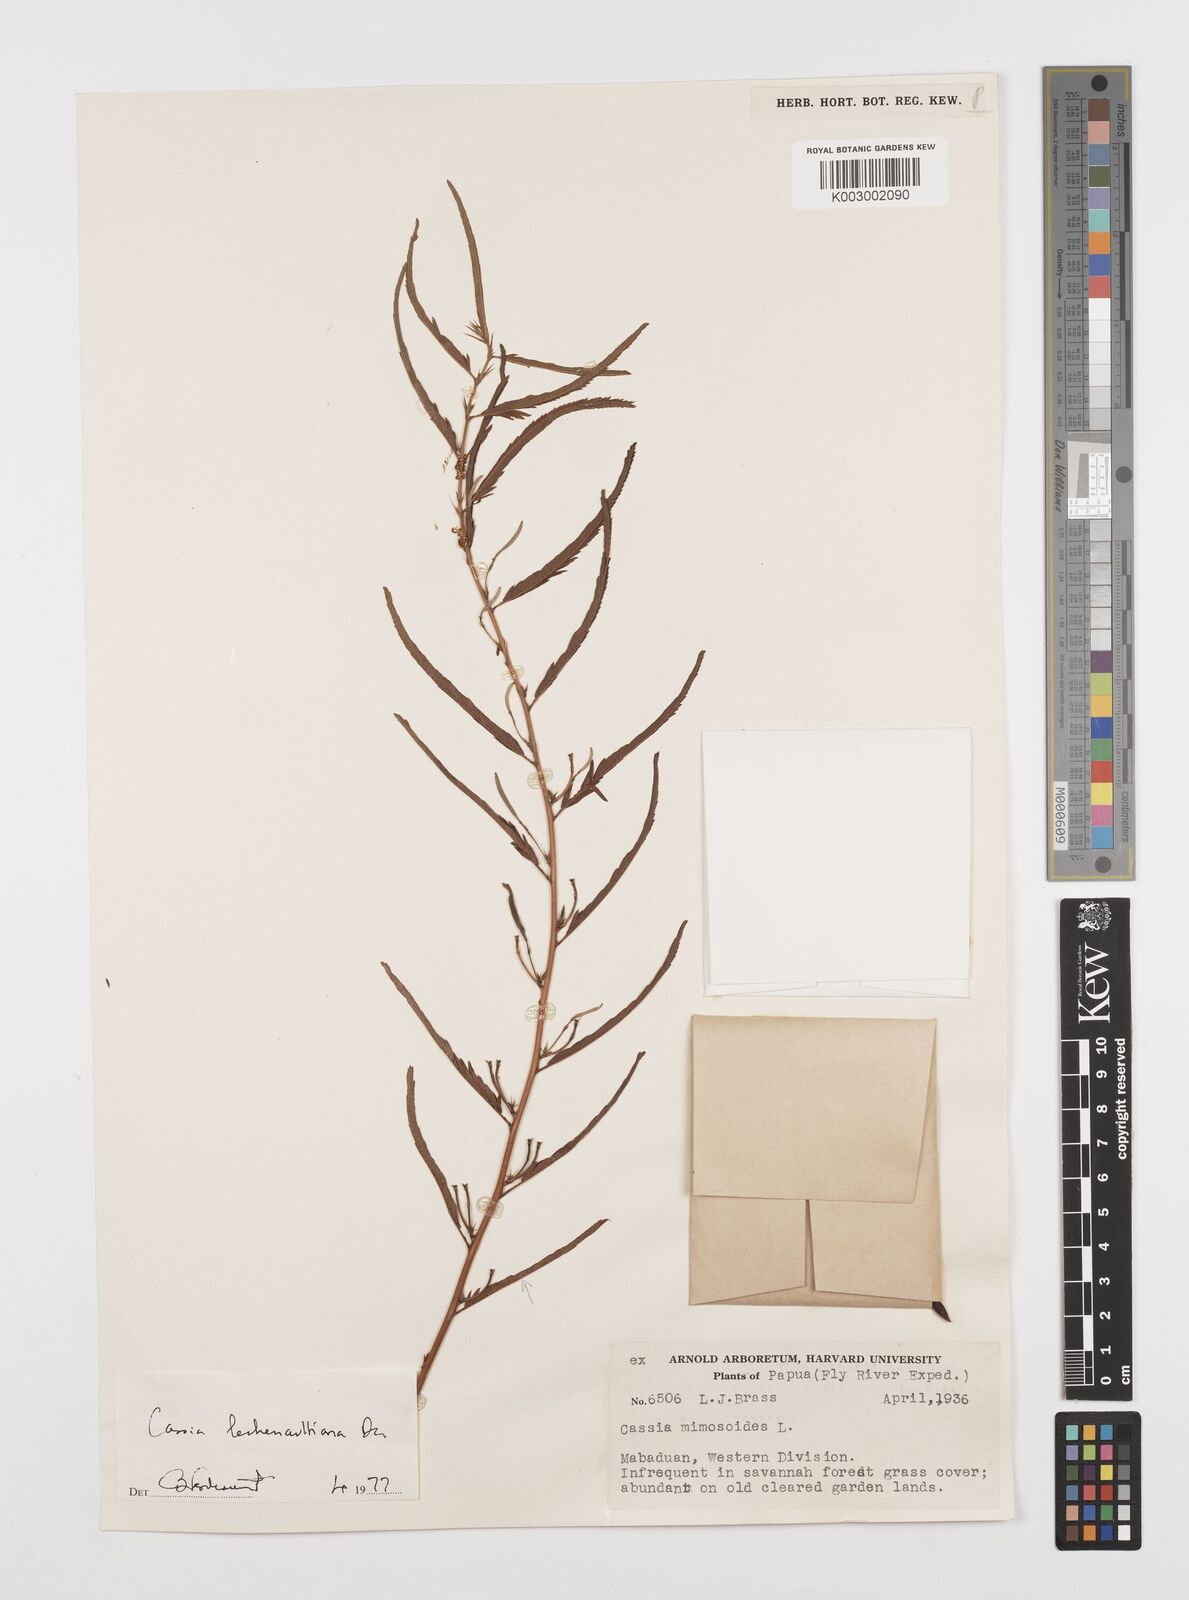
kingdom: Plantae
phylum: Tracheophyta
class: Magnoliopsida
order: Fabales
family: Fabaceae
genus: Chamaecrista
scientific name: Chamaecrista mimosoides
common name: Fish-bone cassia
